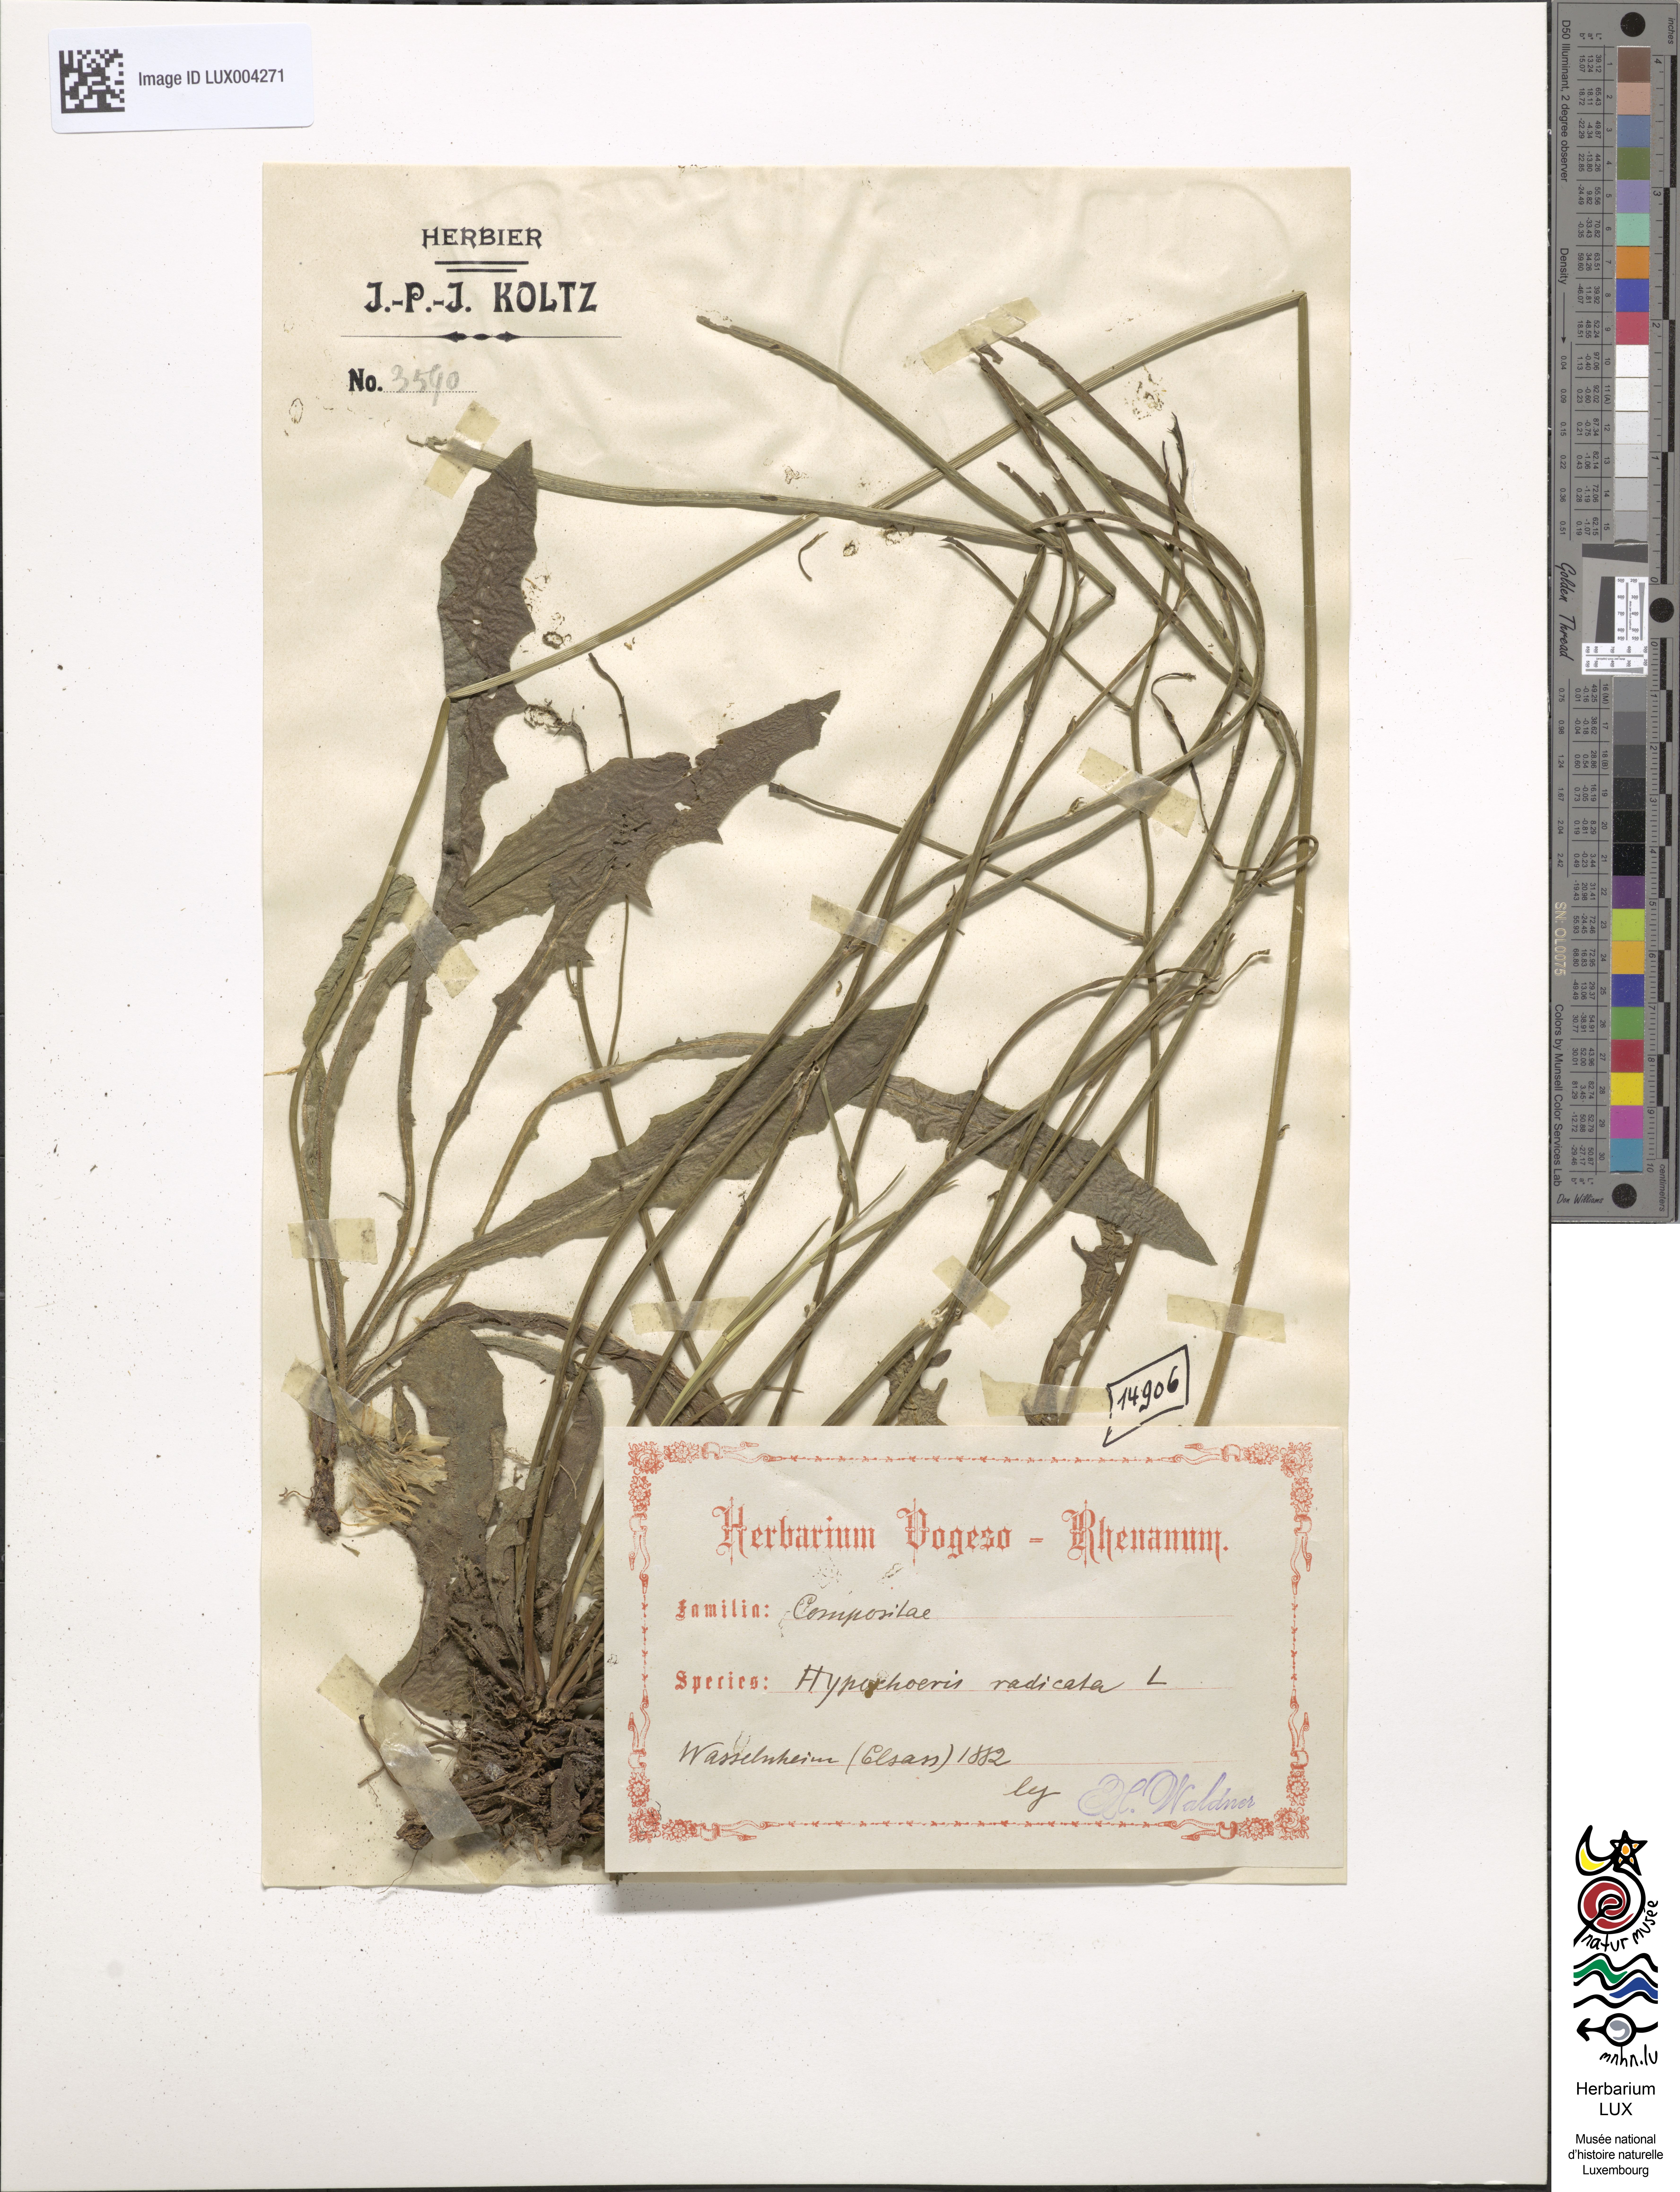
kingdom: Plantae
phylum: Tracheophyta
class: Magnoliopsida
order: Asterales
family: Asteraceae
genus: Hypochoeris
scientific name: Hypochoeris radicata
